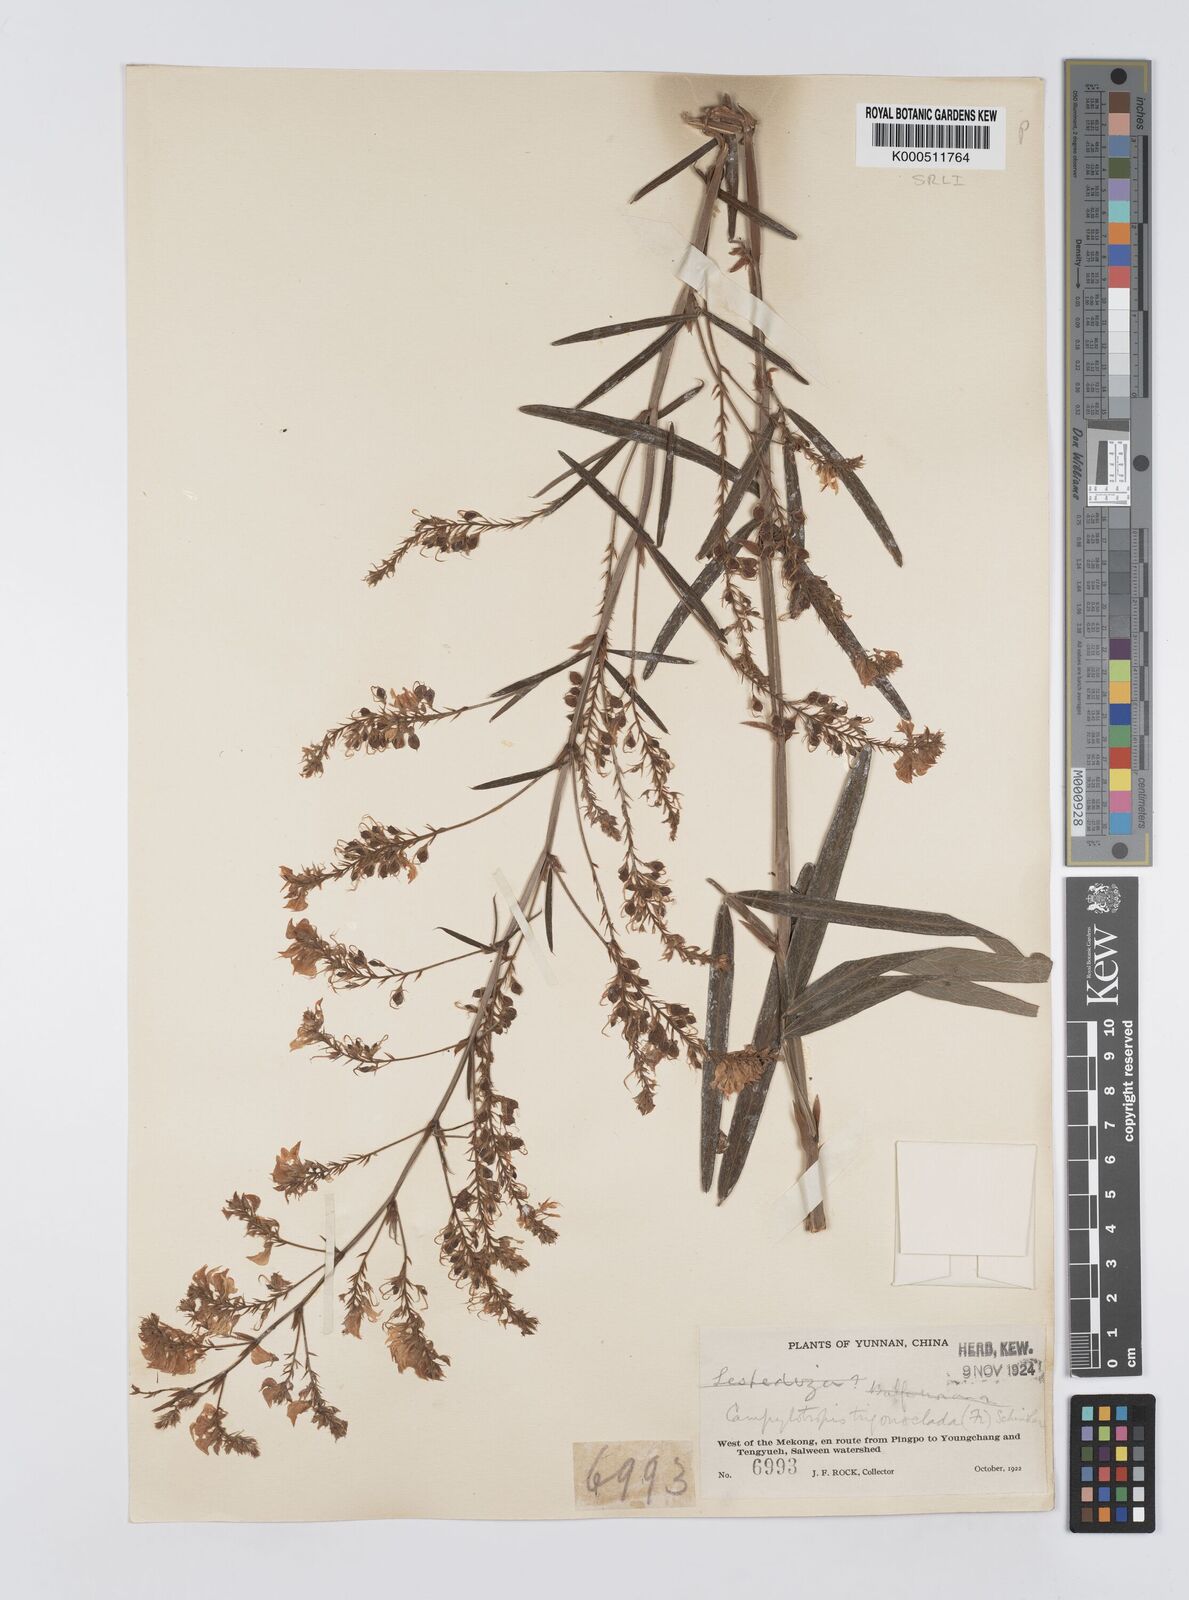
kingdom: Plantae
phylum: Tracheophyta
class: Magnoliopsida
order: Fabales
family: Fabaceae
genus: Campylotropis
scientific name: Campylotropis trigonoclada
